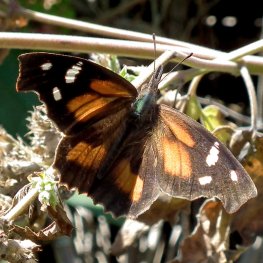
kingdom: Animalia
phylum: Arthropoda
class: Insecta
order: Lepidoptera
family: Nymphalidae
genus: Libytheana
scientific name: Libytheana carinenta
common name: American Snout
